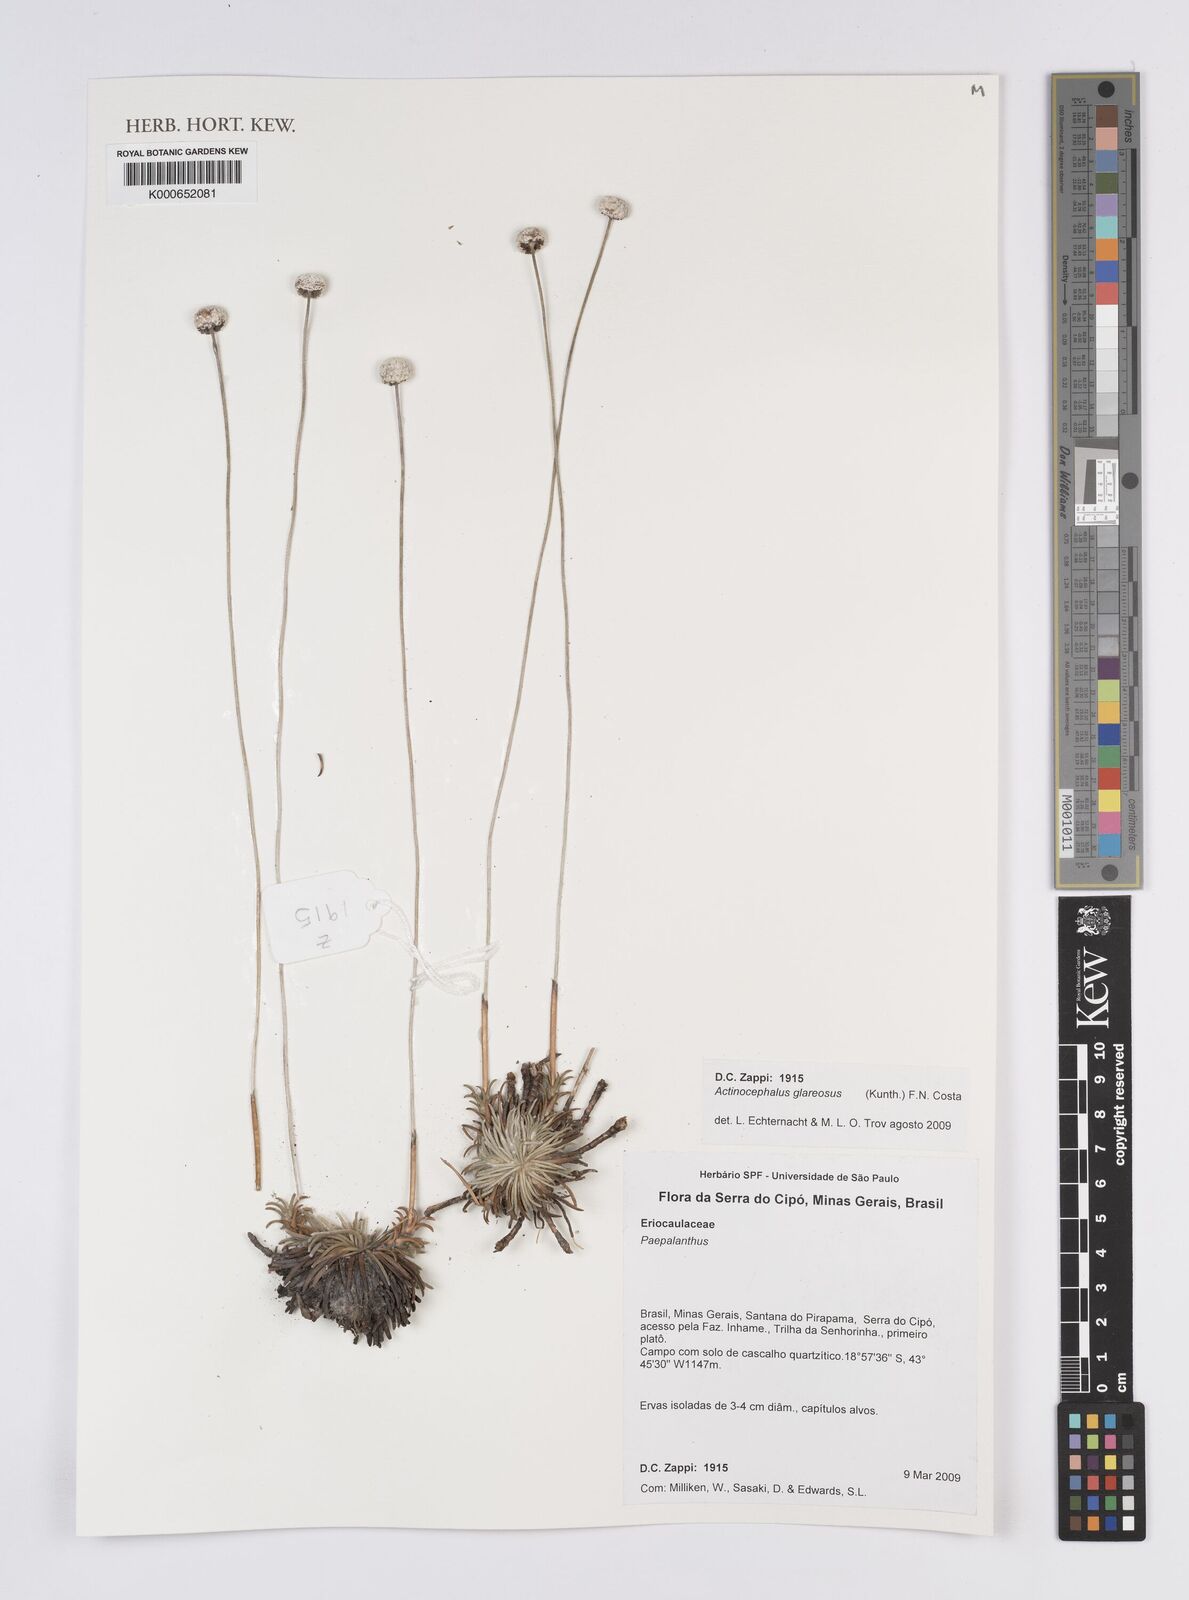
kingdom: Plantae
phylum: Tracheophyta
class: Liliopsida
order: Poales
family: Eriocaulaceae
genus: Paepalanthus
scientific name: Paepalanthus glareosus
